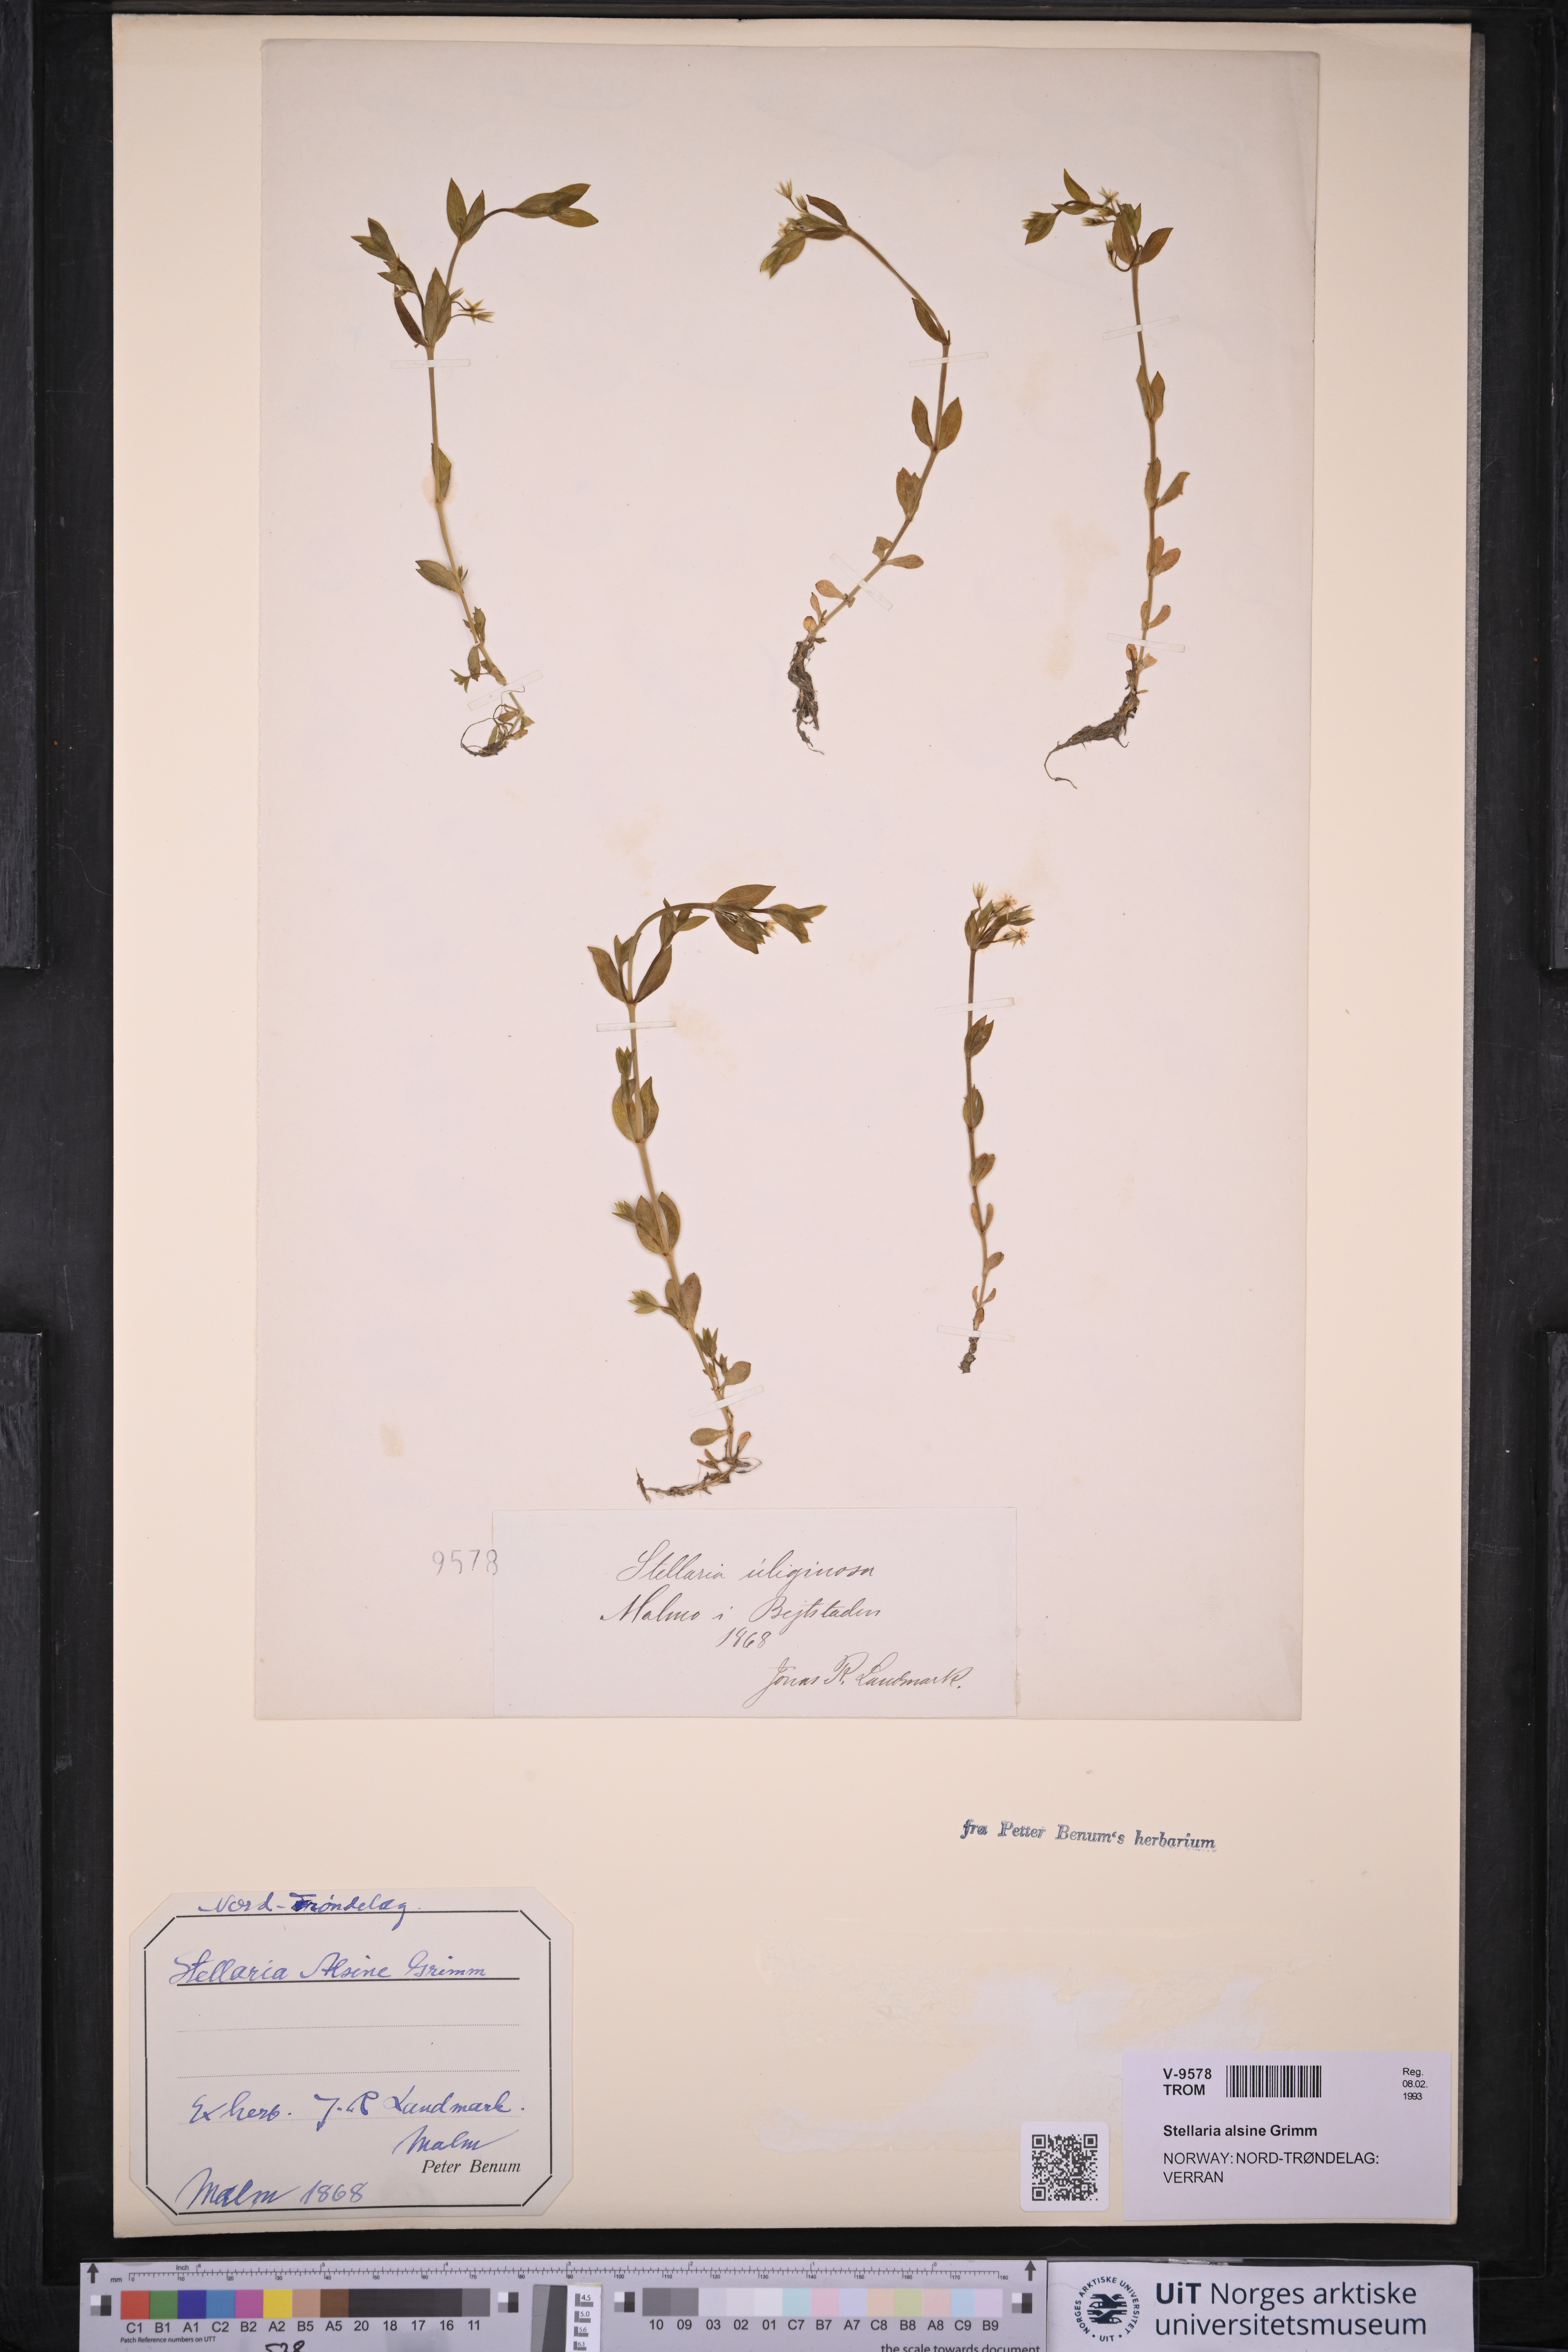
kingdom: Plantae
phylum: Tracheophyta
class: Magnoliopsida
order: Caryophyllales
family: Caryophyllaceae
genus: Stellaria
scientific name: Stellaria alsine
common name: Bog stitchwort
